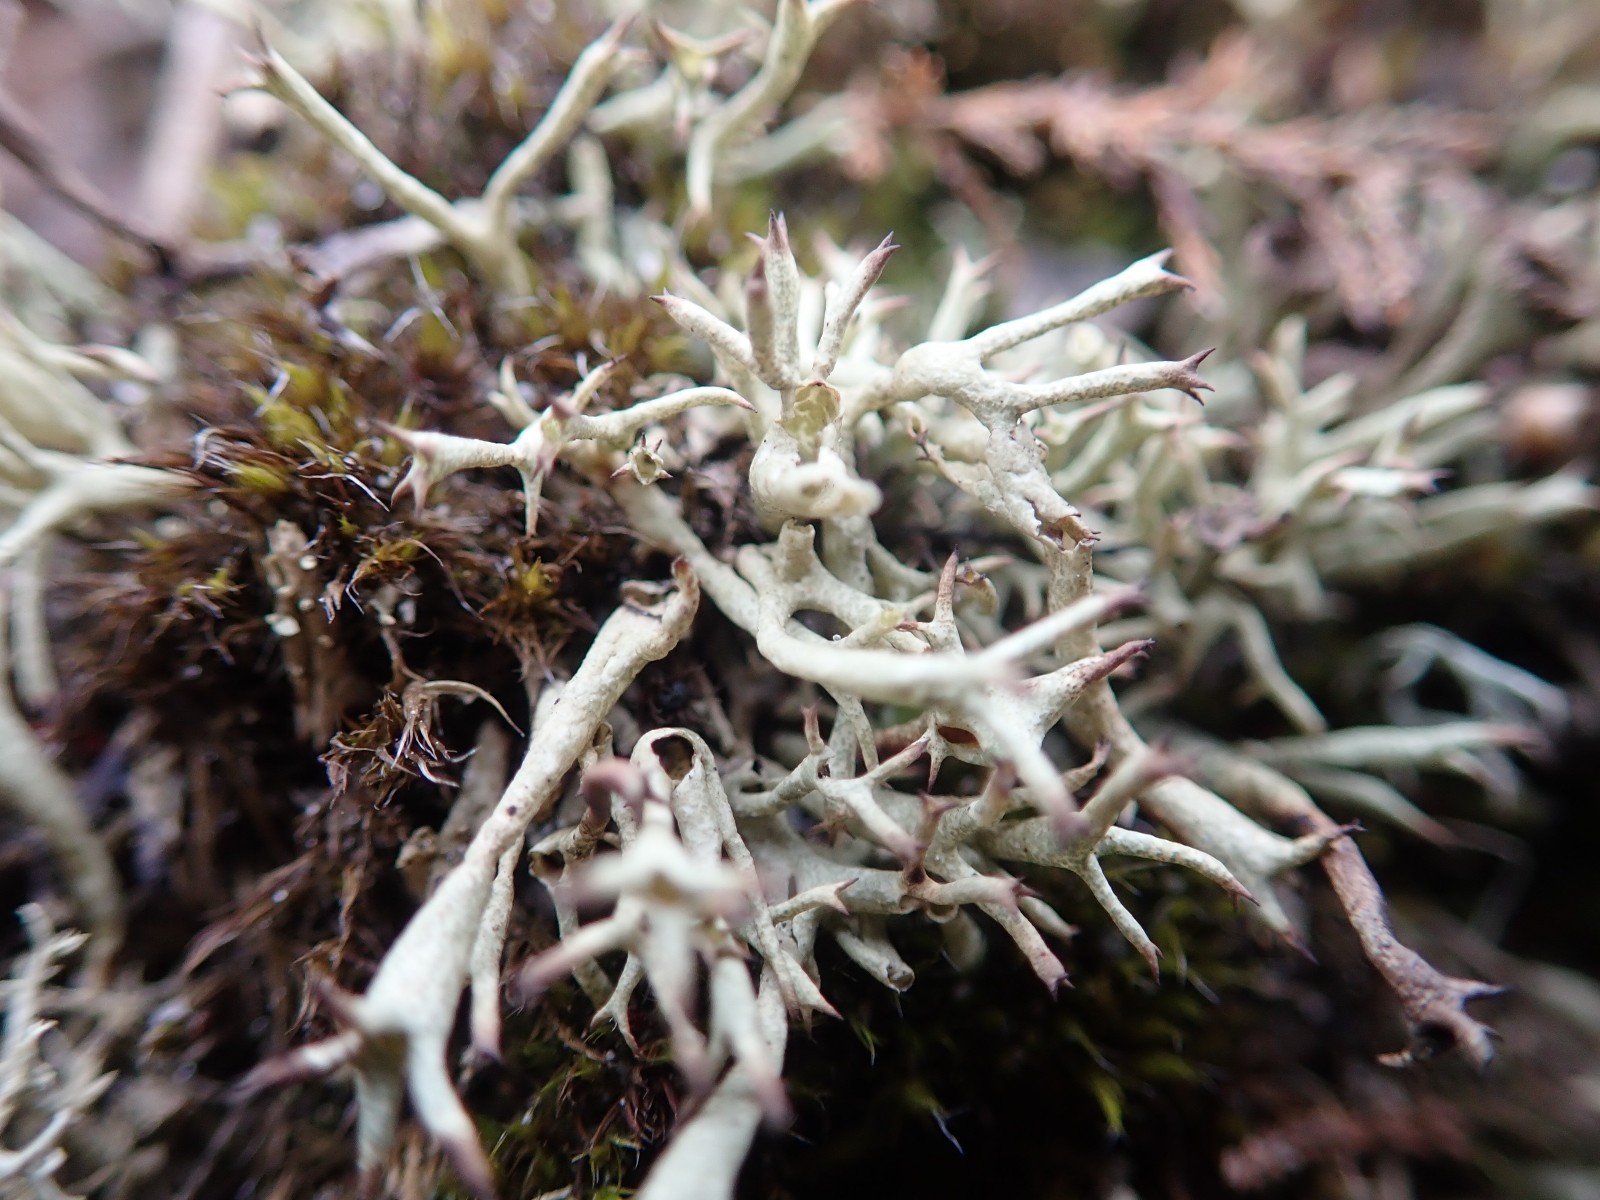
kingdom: Fungi
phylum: Ascomycota
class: Lecanoromycetes
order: Lecanorales
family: Cladoniaceae
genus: Cladonia
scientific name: Cladonia uncialis
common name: pigget bægerlav
